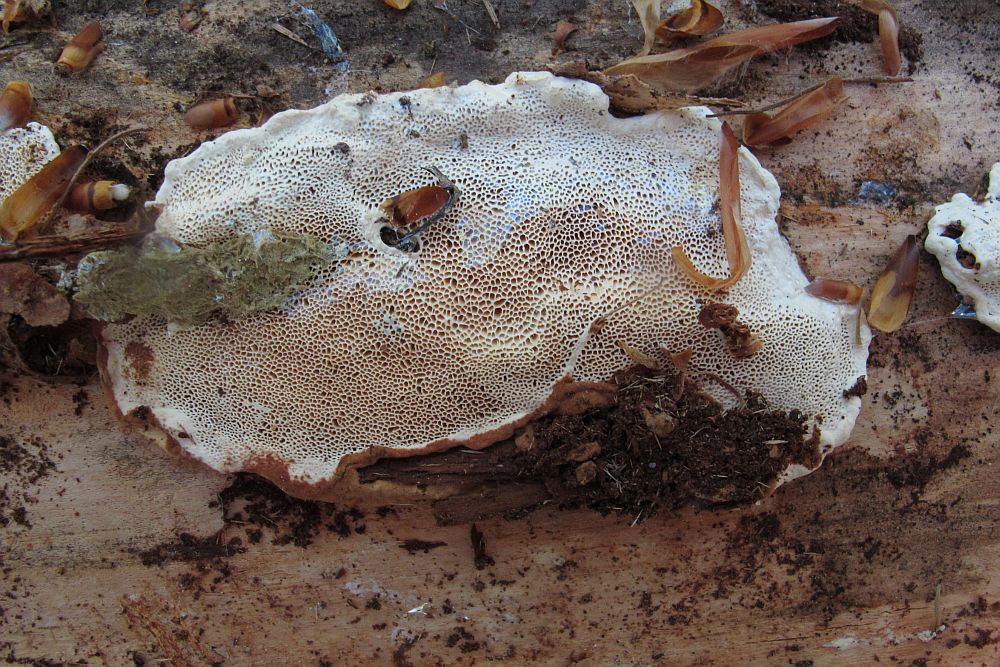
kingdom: Fungi
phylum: Basidiomycota
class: Agaricomycetes
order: Polyporales
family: Incrustoporiaceae
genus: Skeletocutis
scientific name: Skeletocutis amorpha
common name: orange krystalporesvamp
